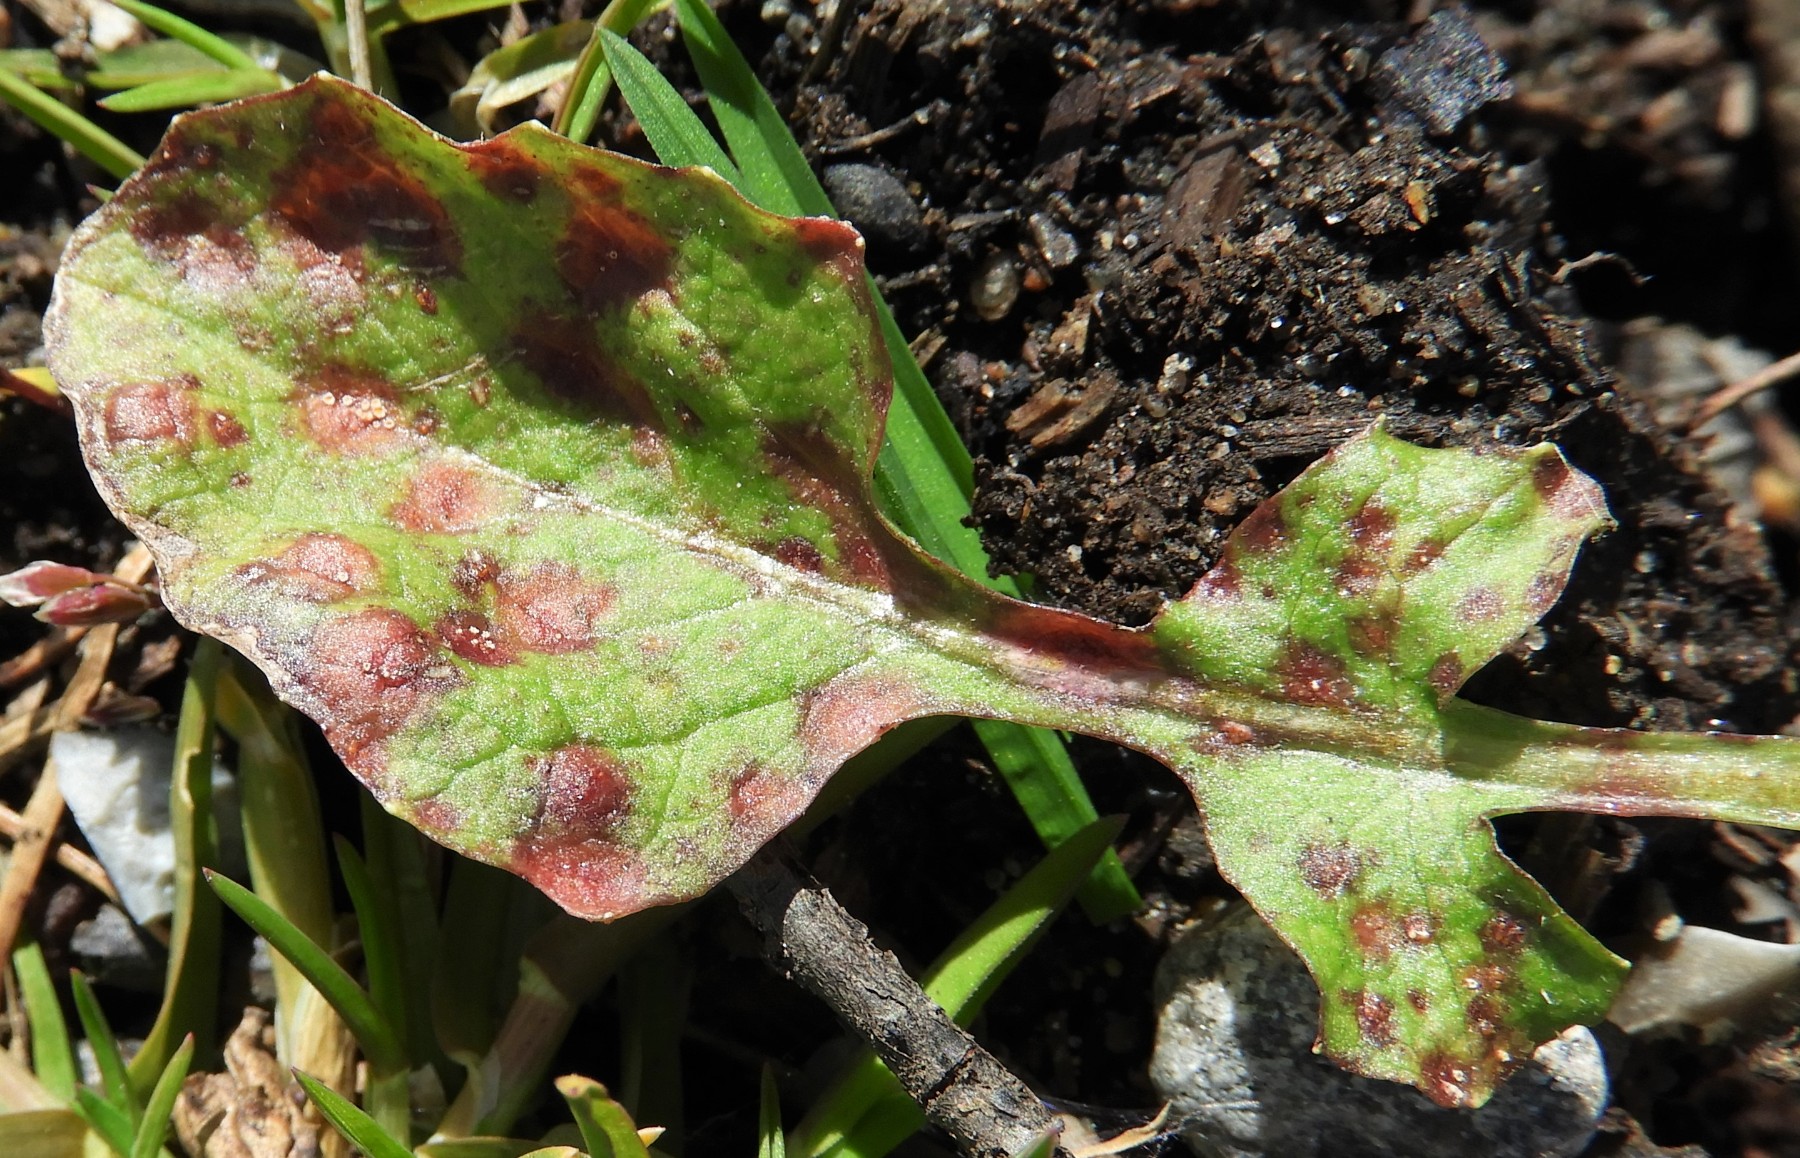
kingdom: Fungi
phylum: Basidiomycota
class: Pucciniomycetes
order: Pucciniales
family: Pucciniaceae
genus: Puccinia
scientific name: Puccinia lapsanae
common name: Nipplewort rust
